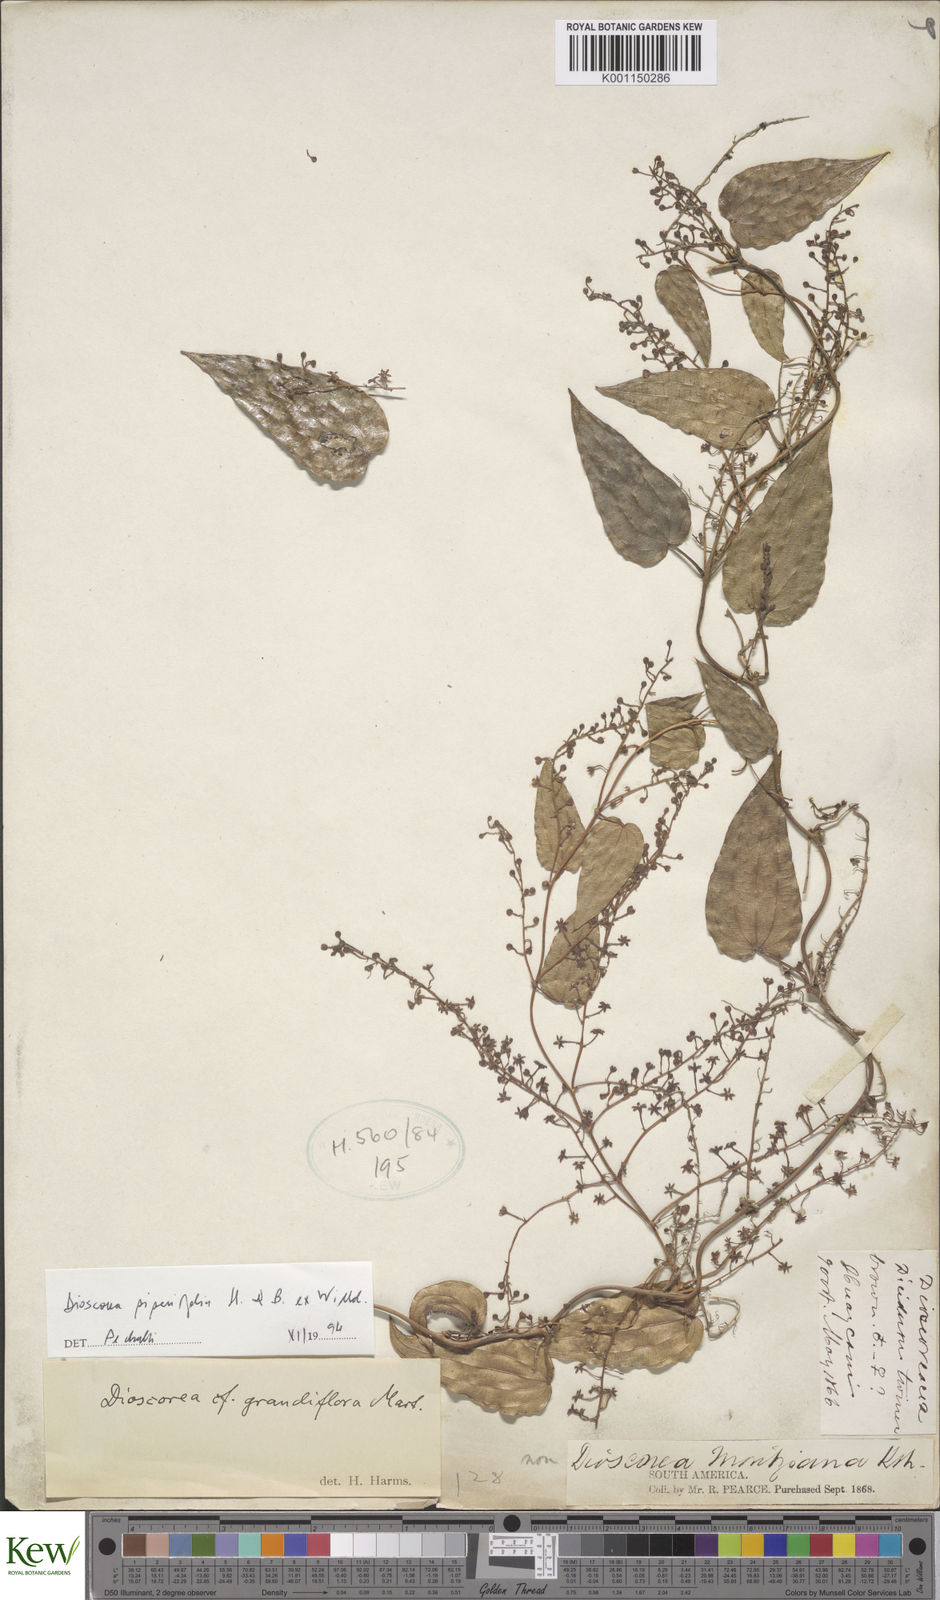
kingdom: Plantae
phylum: Tracheophyta
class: Liliopsida
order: Dioscoreales
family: Dioscoreaceae
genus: Dioscorea
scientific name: Dioscorea piperifolia
